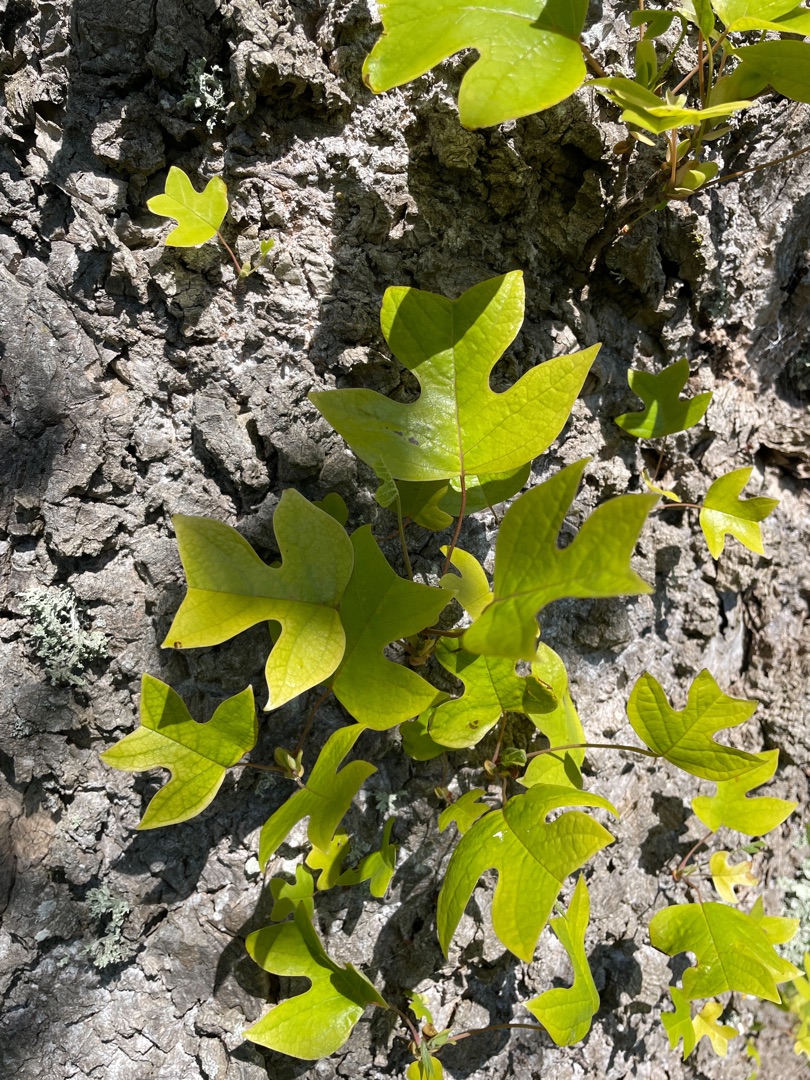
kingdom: Plantae
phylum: Tracheophyta
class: Magnoliopsida
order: Magnoliales
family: Magnoliaceae
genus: Liriodendron
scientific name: Liriodendron tulipifera
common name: Tulipantræ
